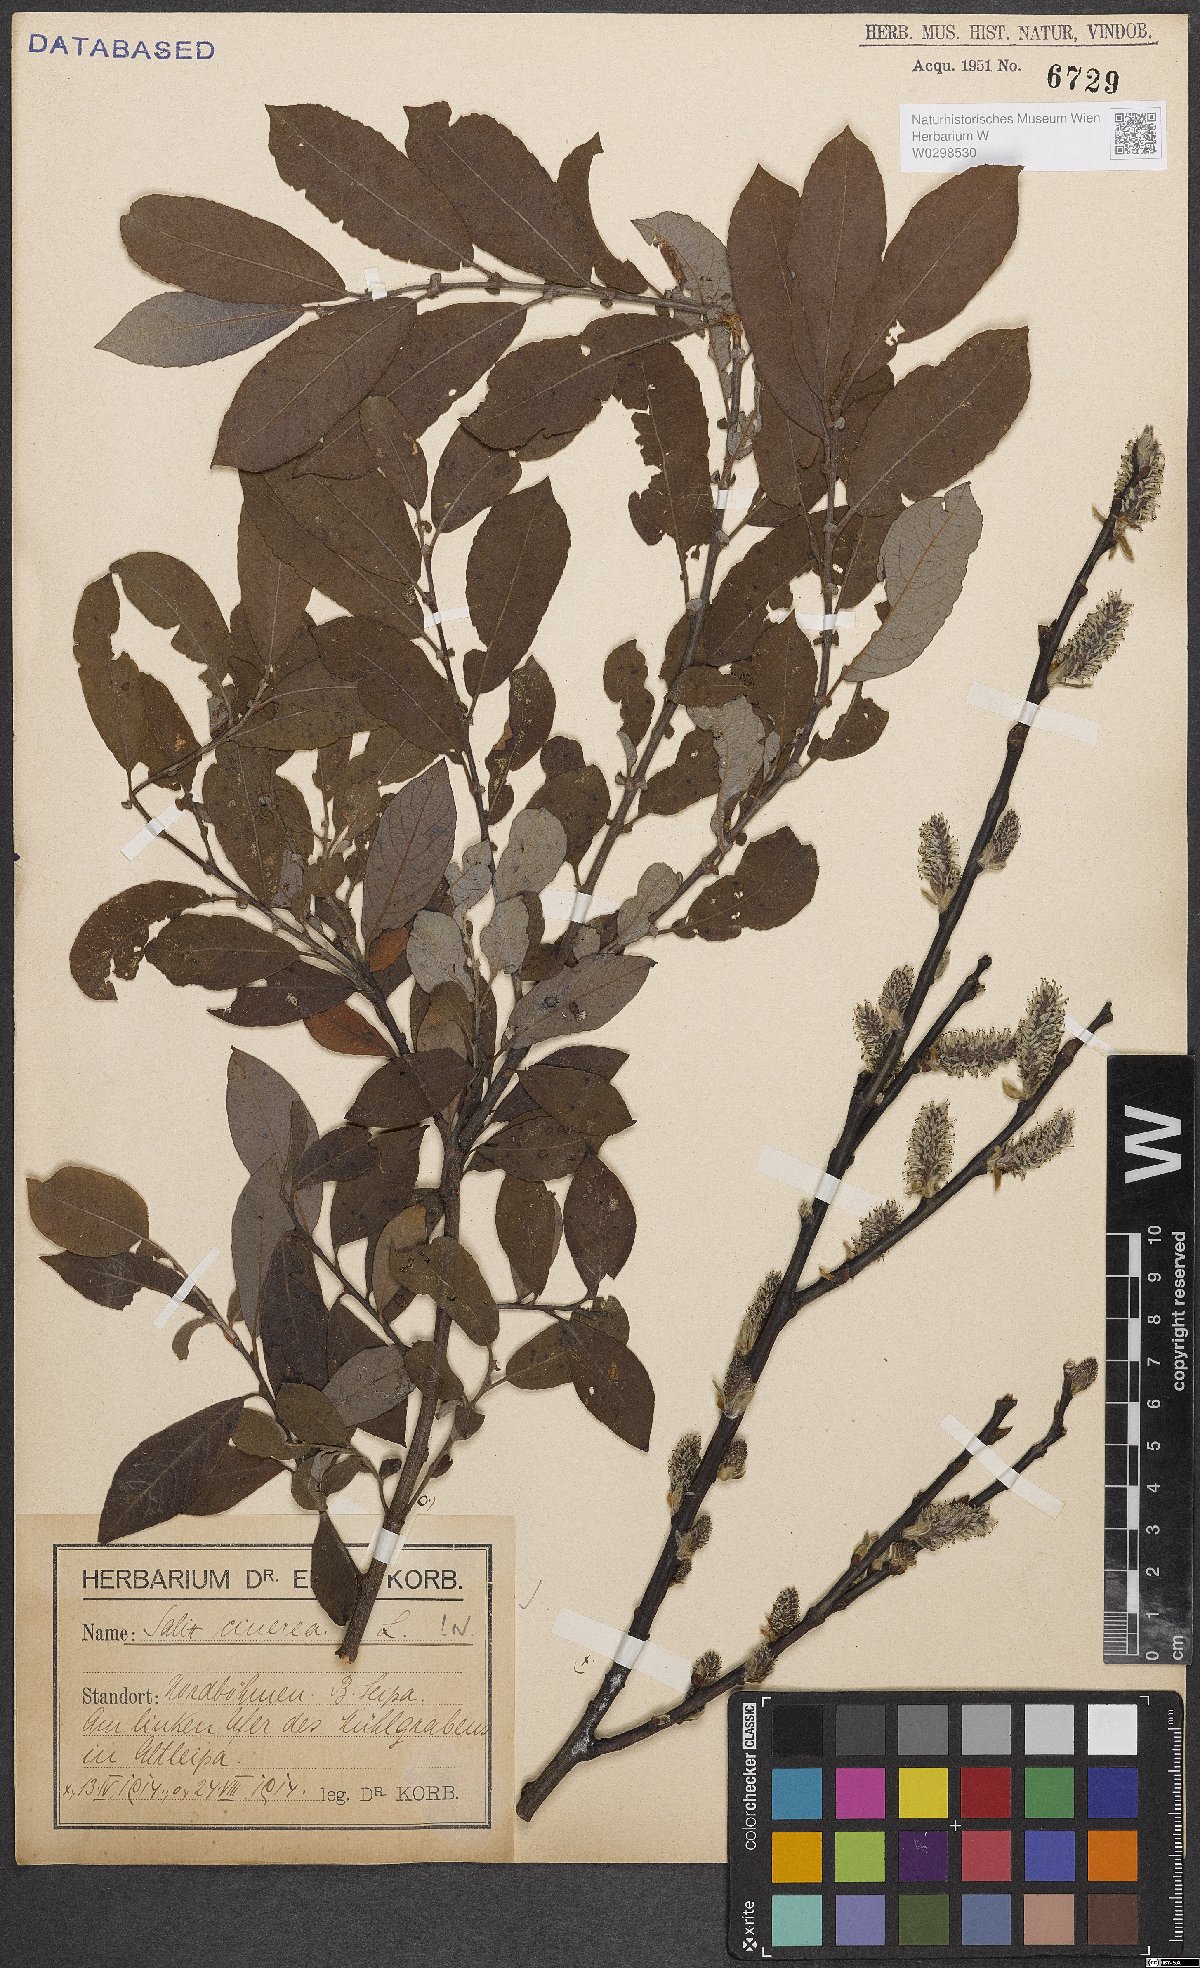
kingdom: Plantae
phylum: Tracheophyta
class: Magnoliopsida
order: Malpighiales
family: Salicaceae
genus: Salix
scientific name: Salix cinerea
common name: Common sallow
